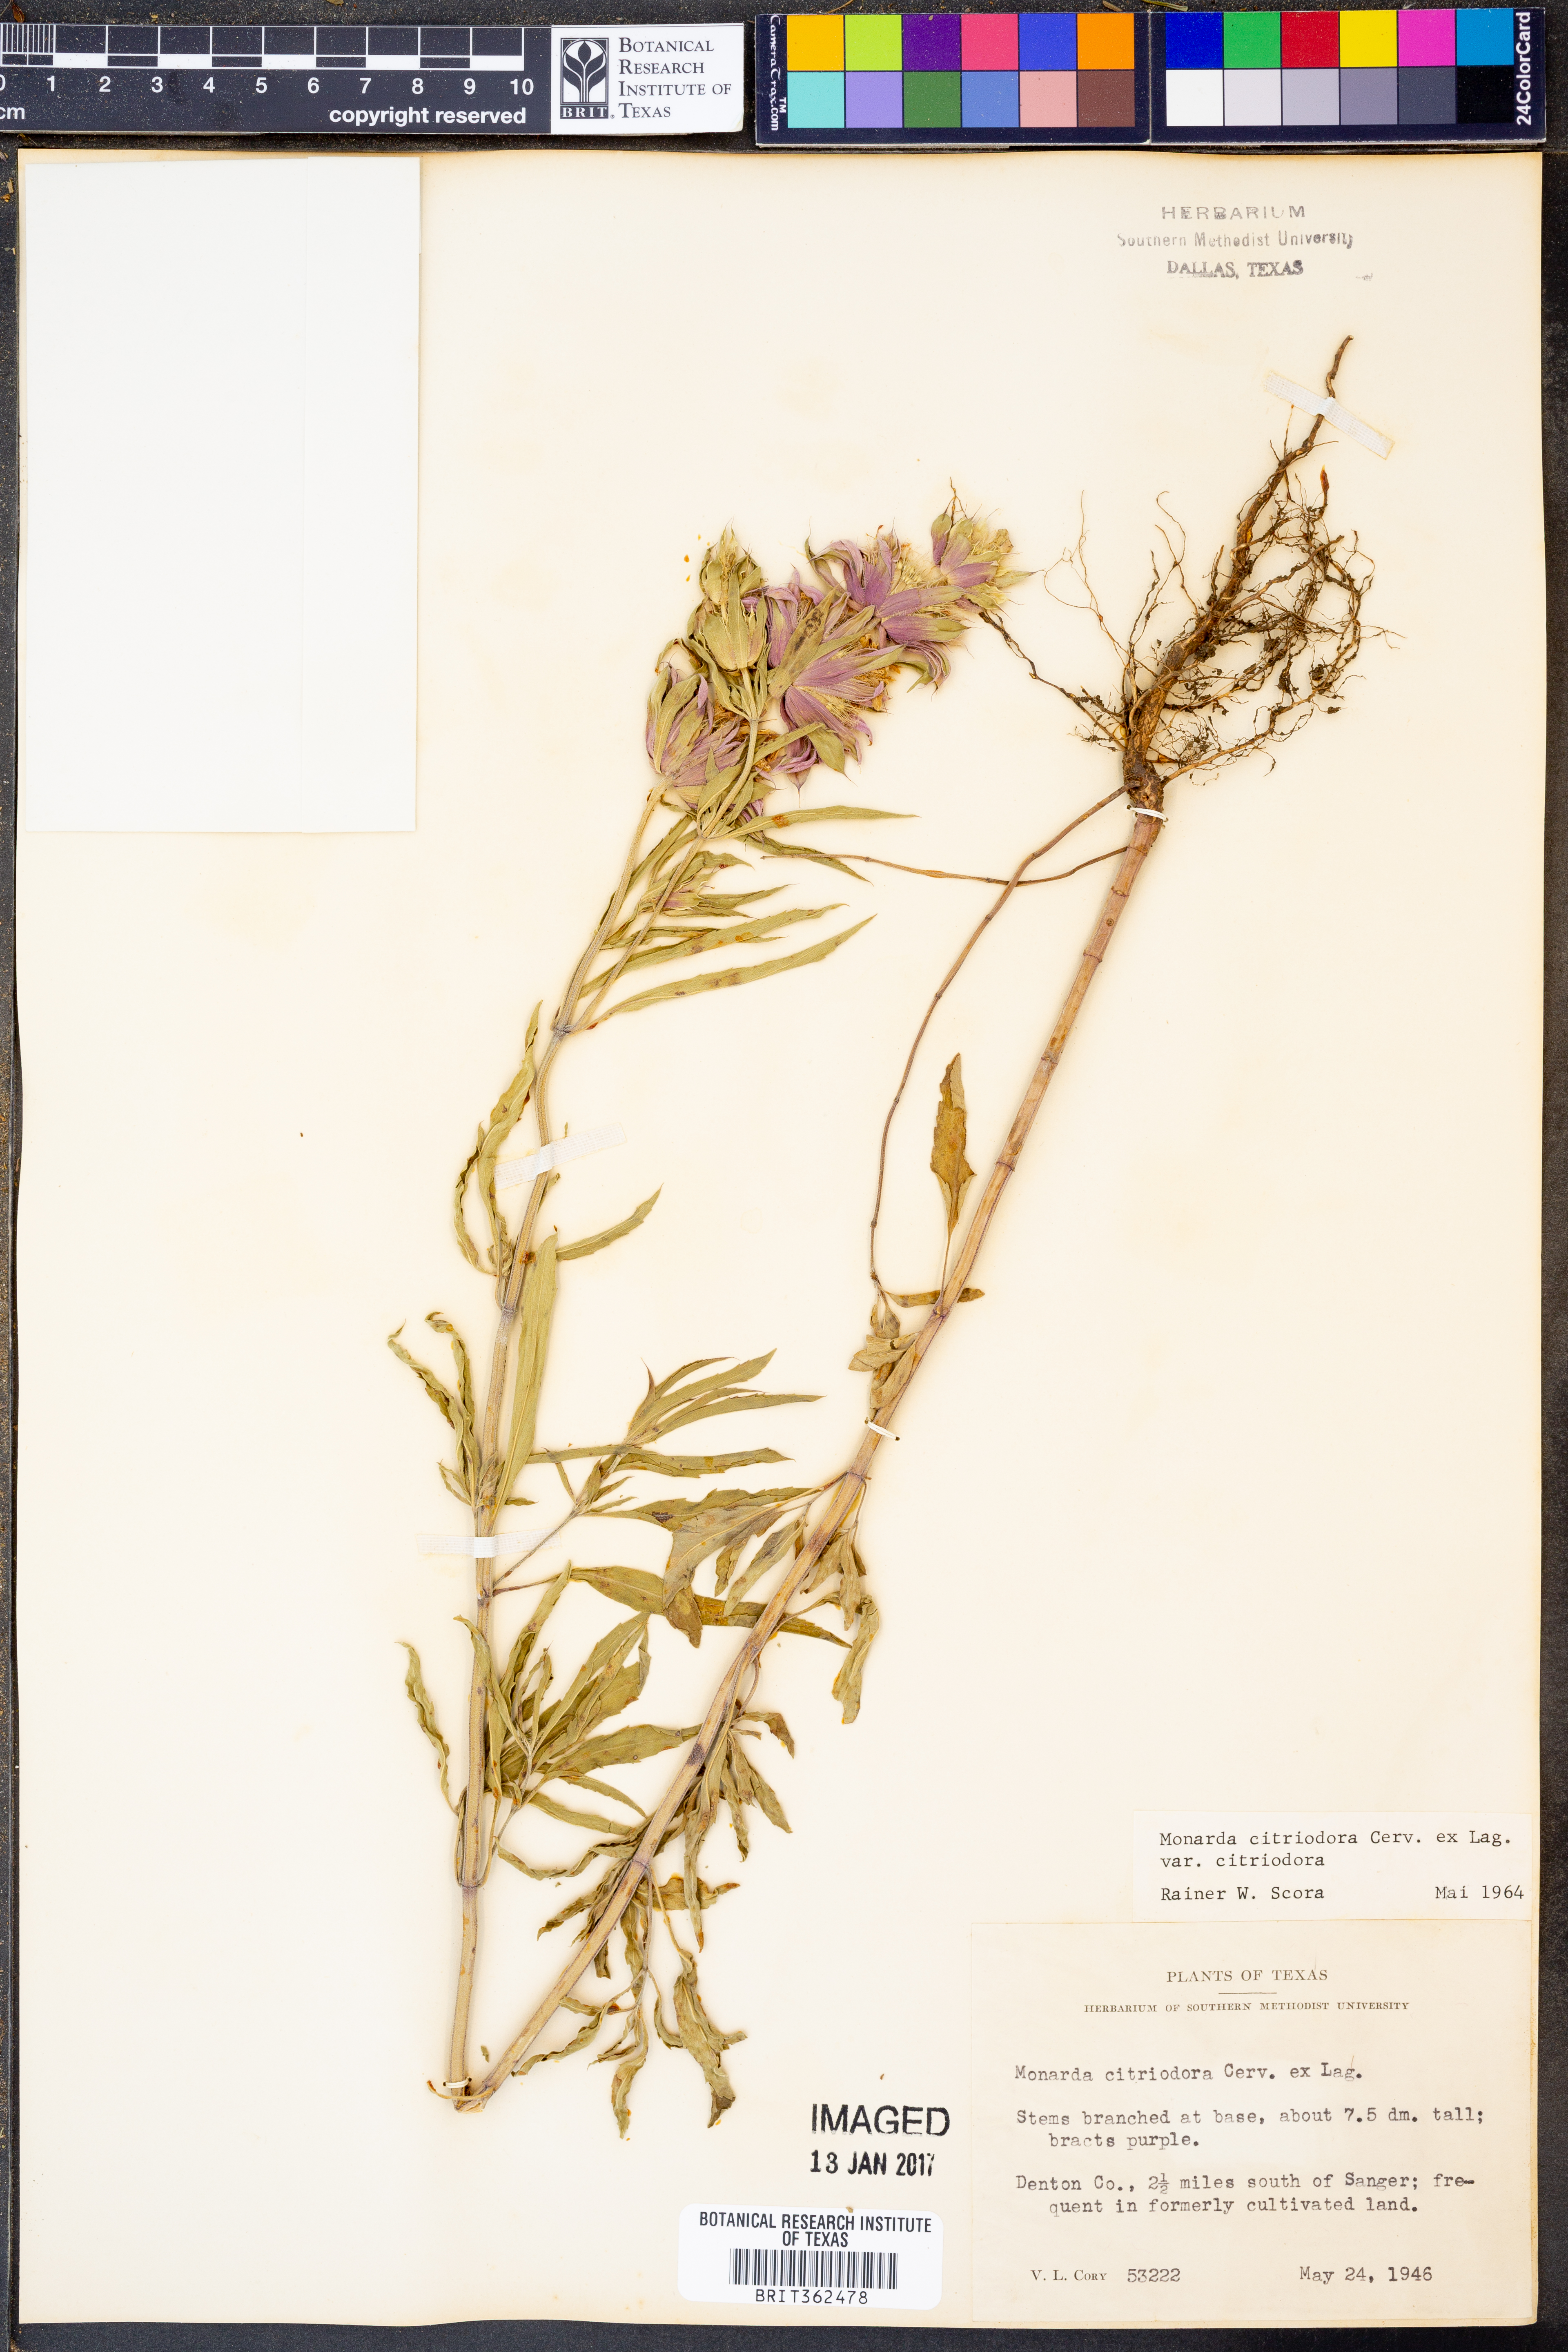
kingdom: Plantae
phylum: Tracheophyta
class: Magnoliopsida
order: Lamiales
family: Lamiaceae
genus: Monarda
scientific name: Monarda citriodora
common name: Lemon beebalm
